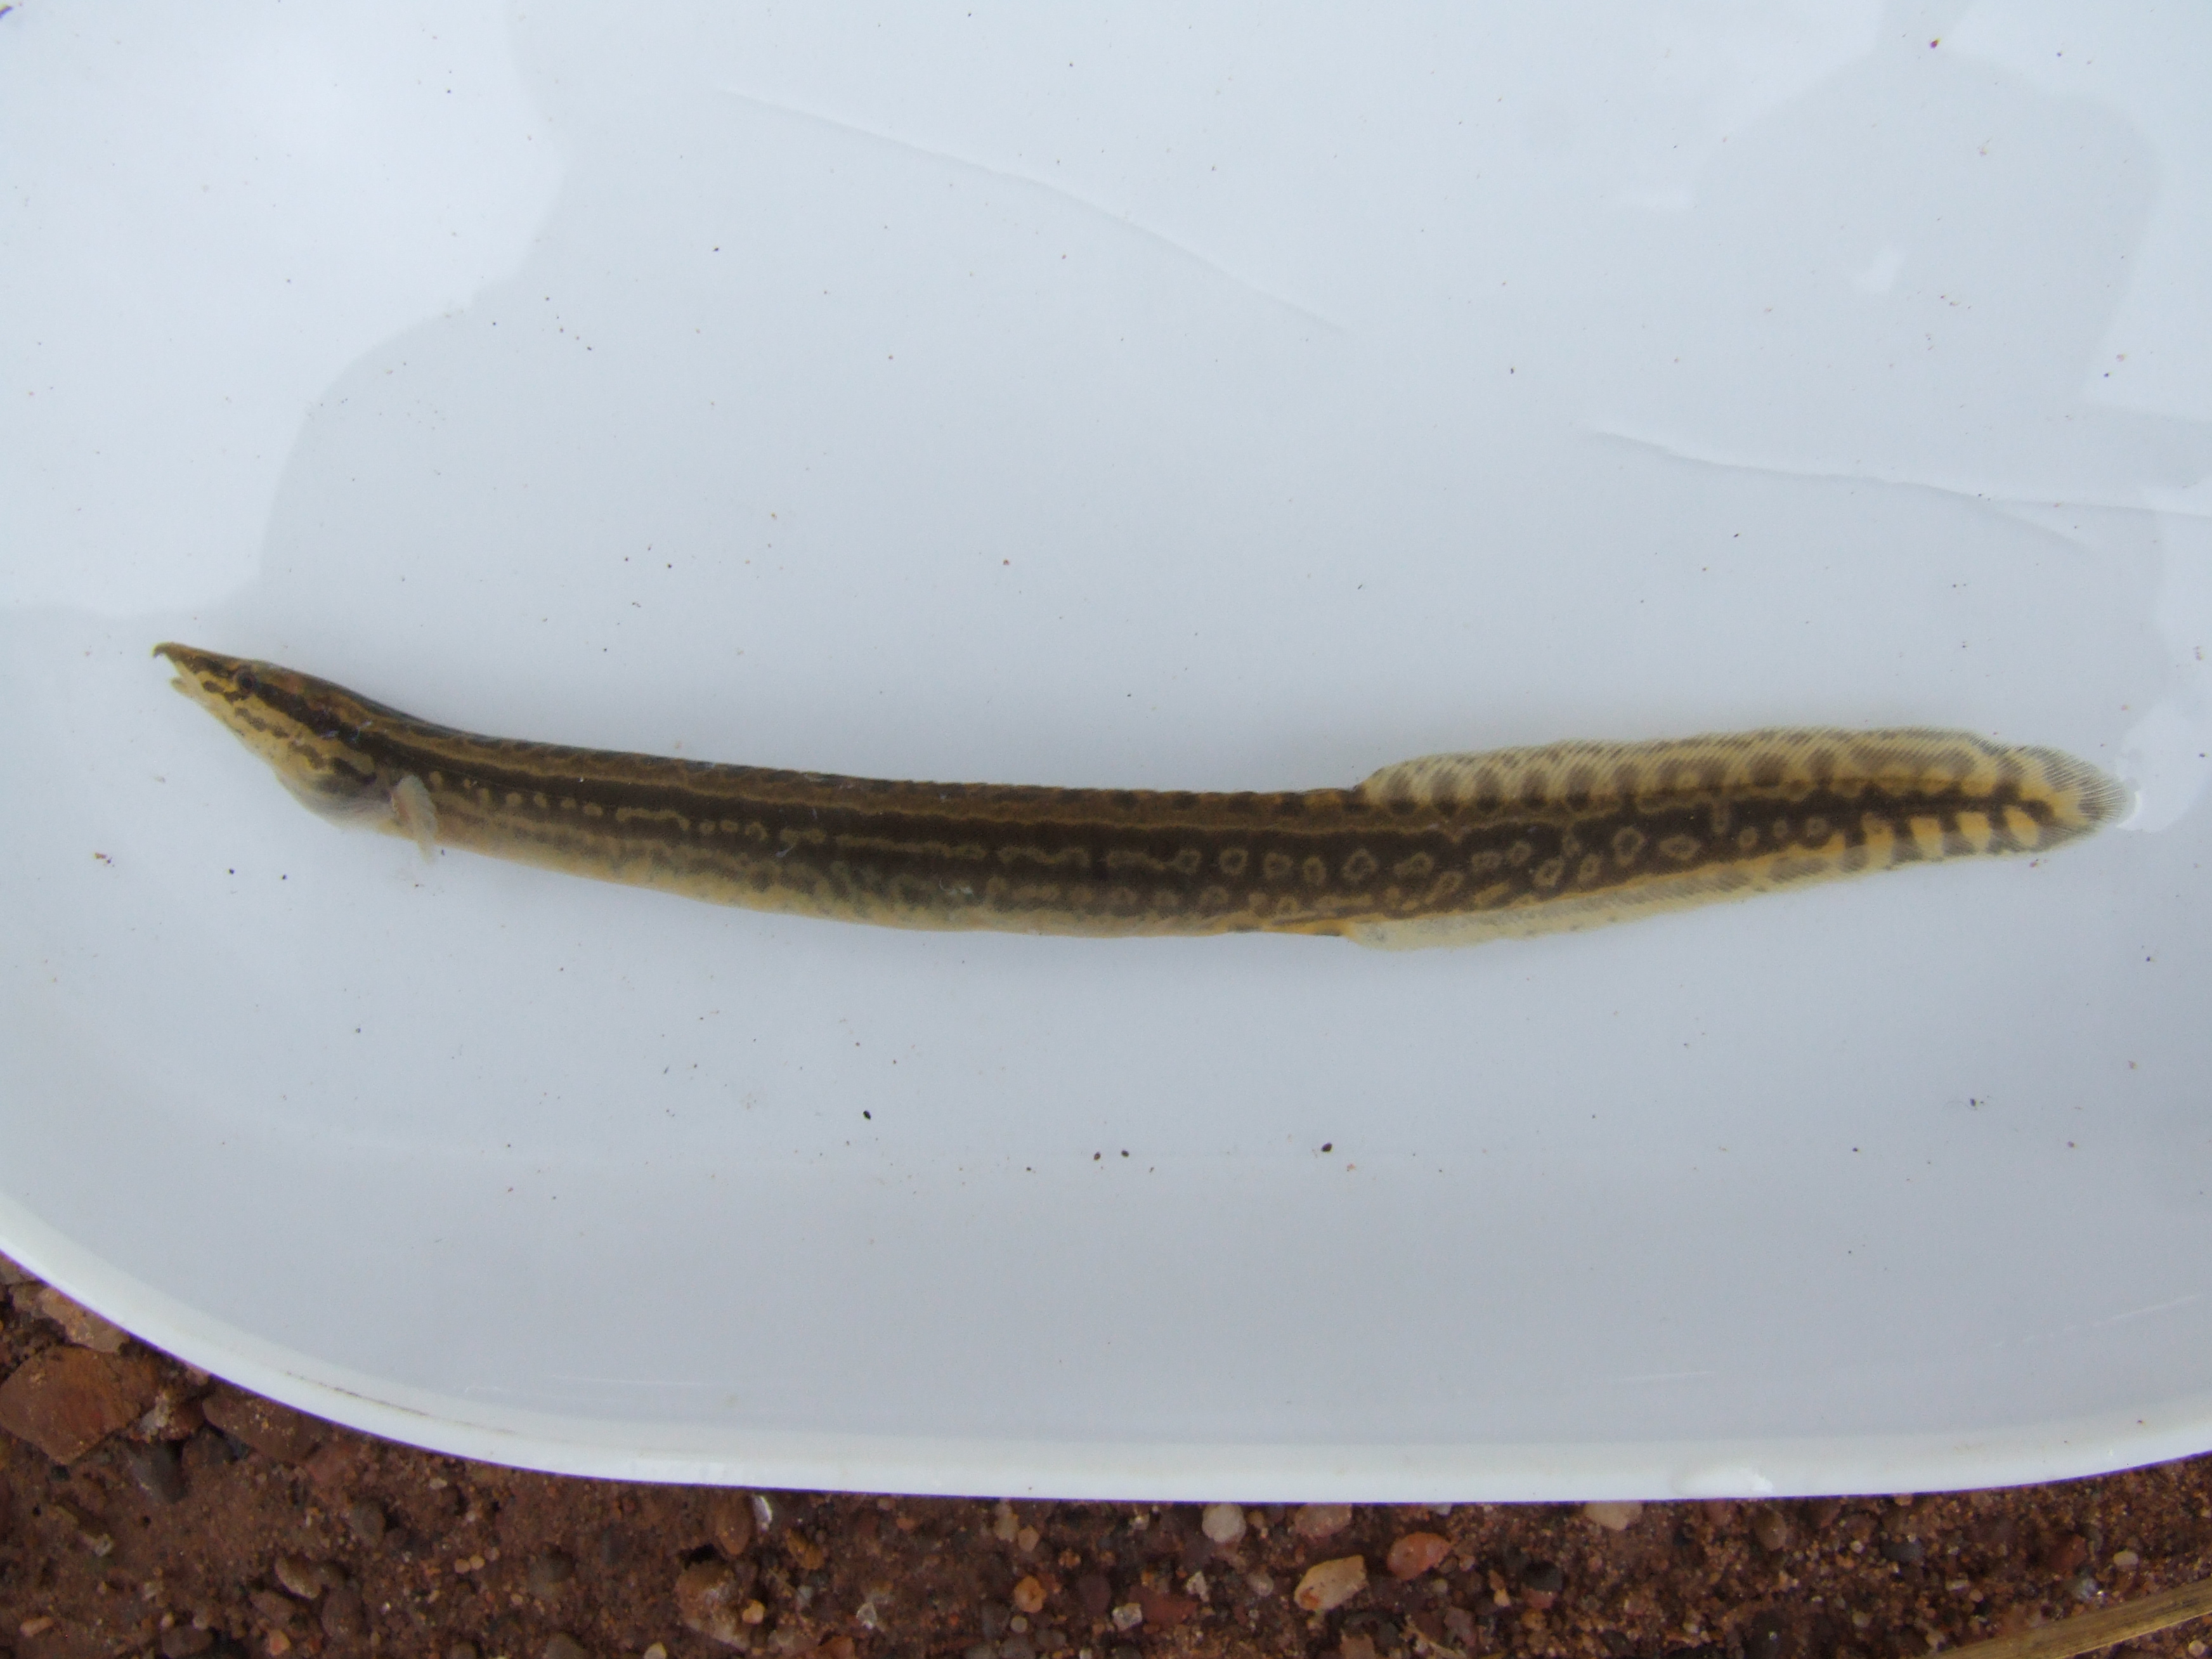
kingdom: Animalia
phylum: Chordata
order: Synbranchiformes
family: Mastacembelidae
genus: Mastacembelus
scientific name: Mastacembelus frenatus
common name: East african spiny eel
